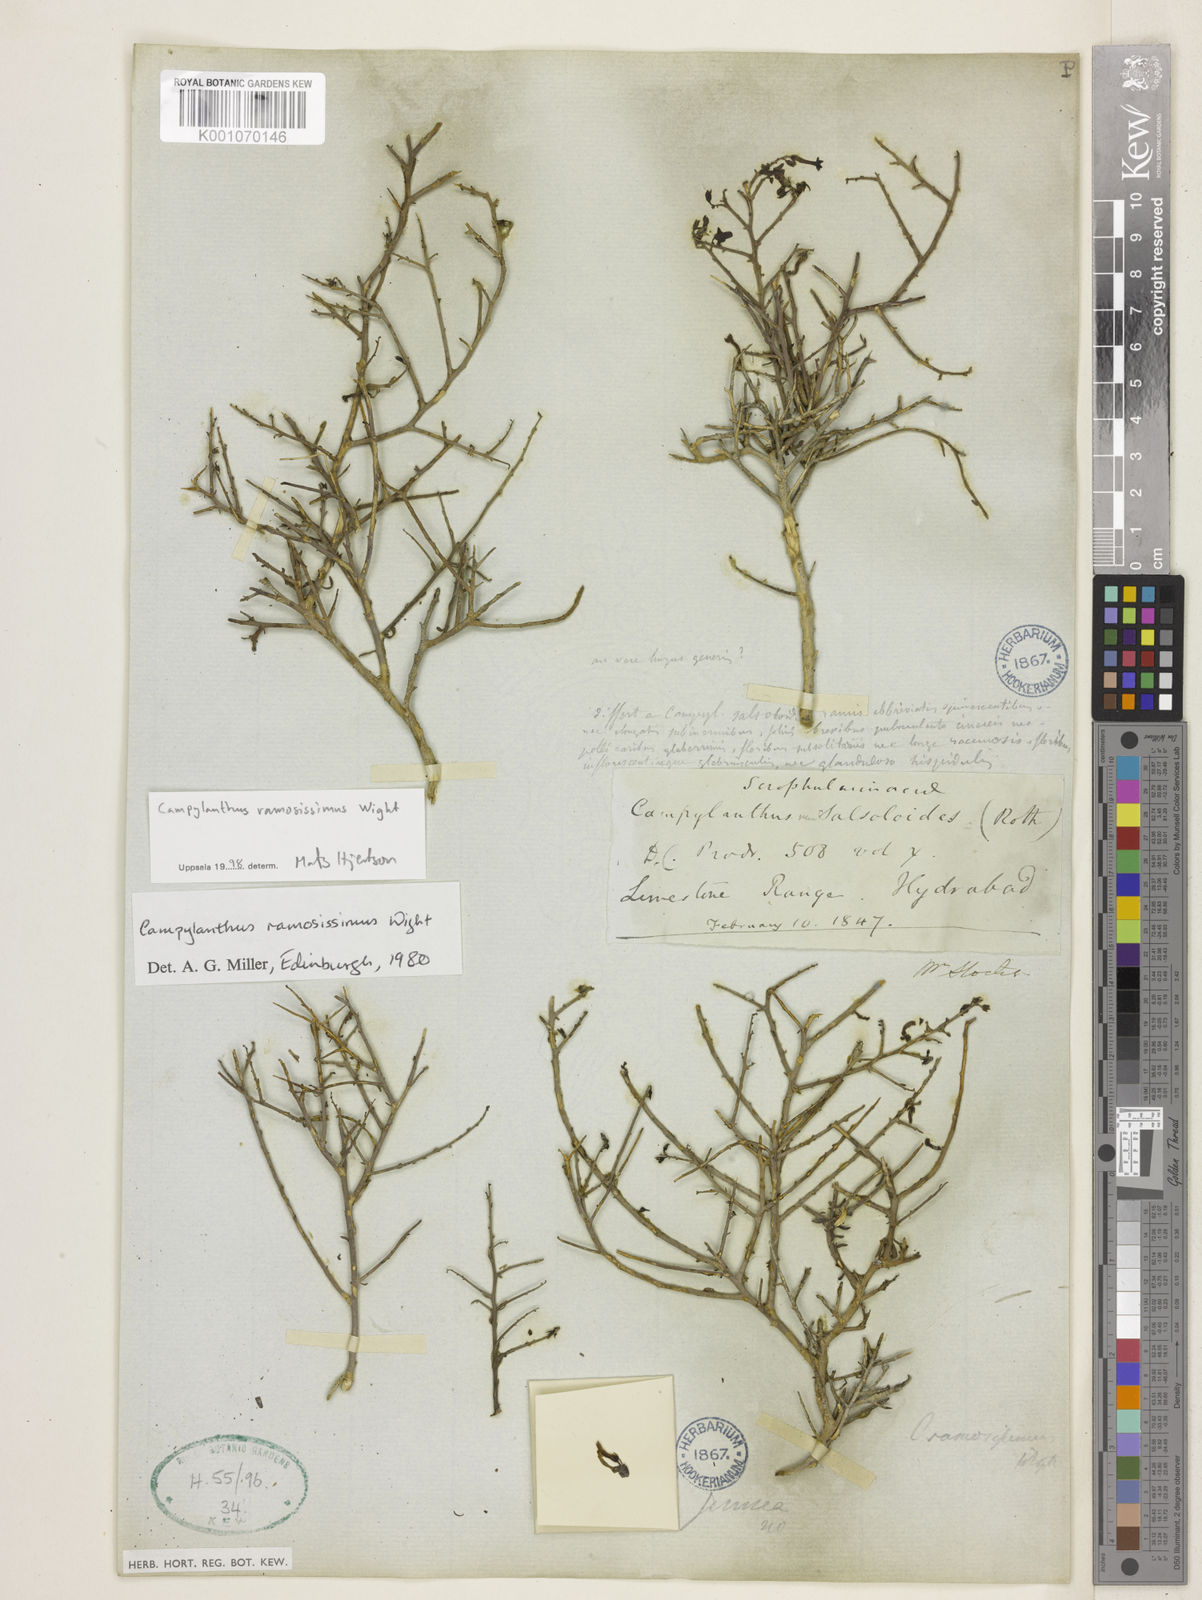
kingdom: Plantae
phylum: Tracheophyta
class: Magnoliopsida
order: Lamiales
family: Plantaginaceae
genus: Campylanthus
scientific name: Campylanthus ramosissimus
